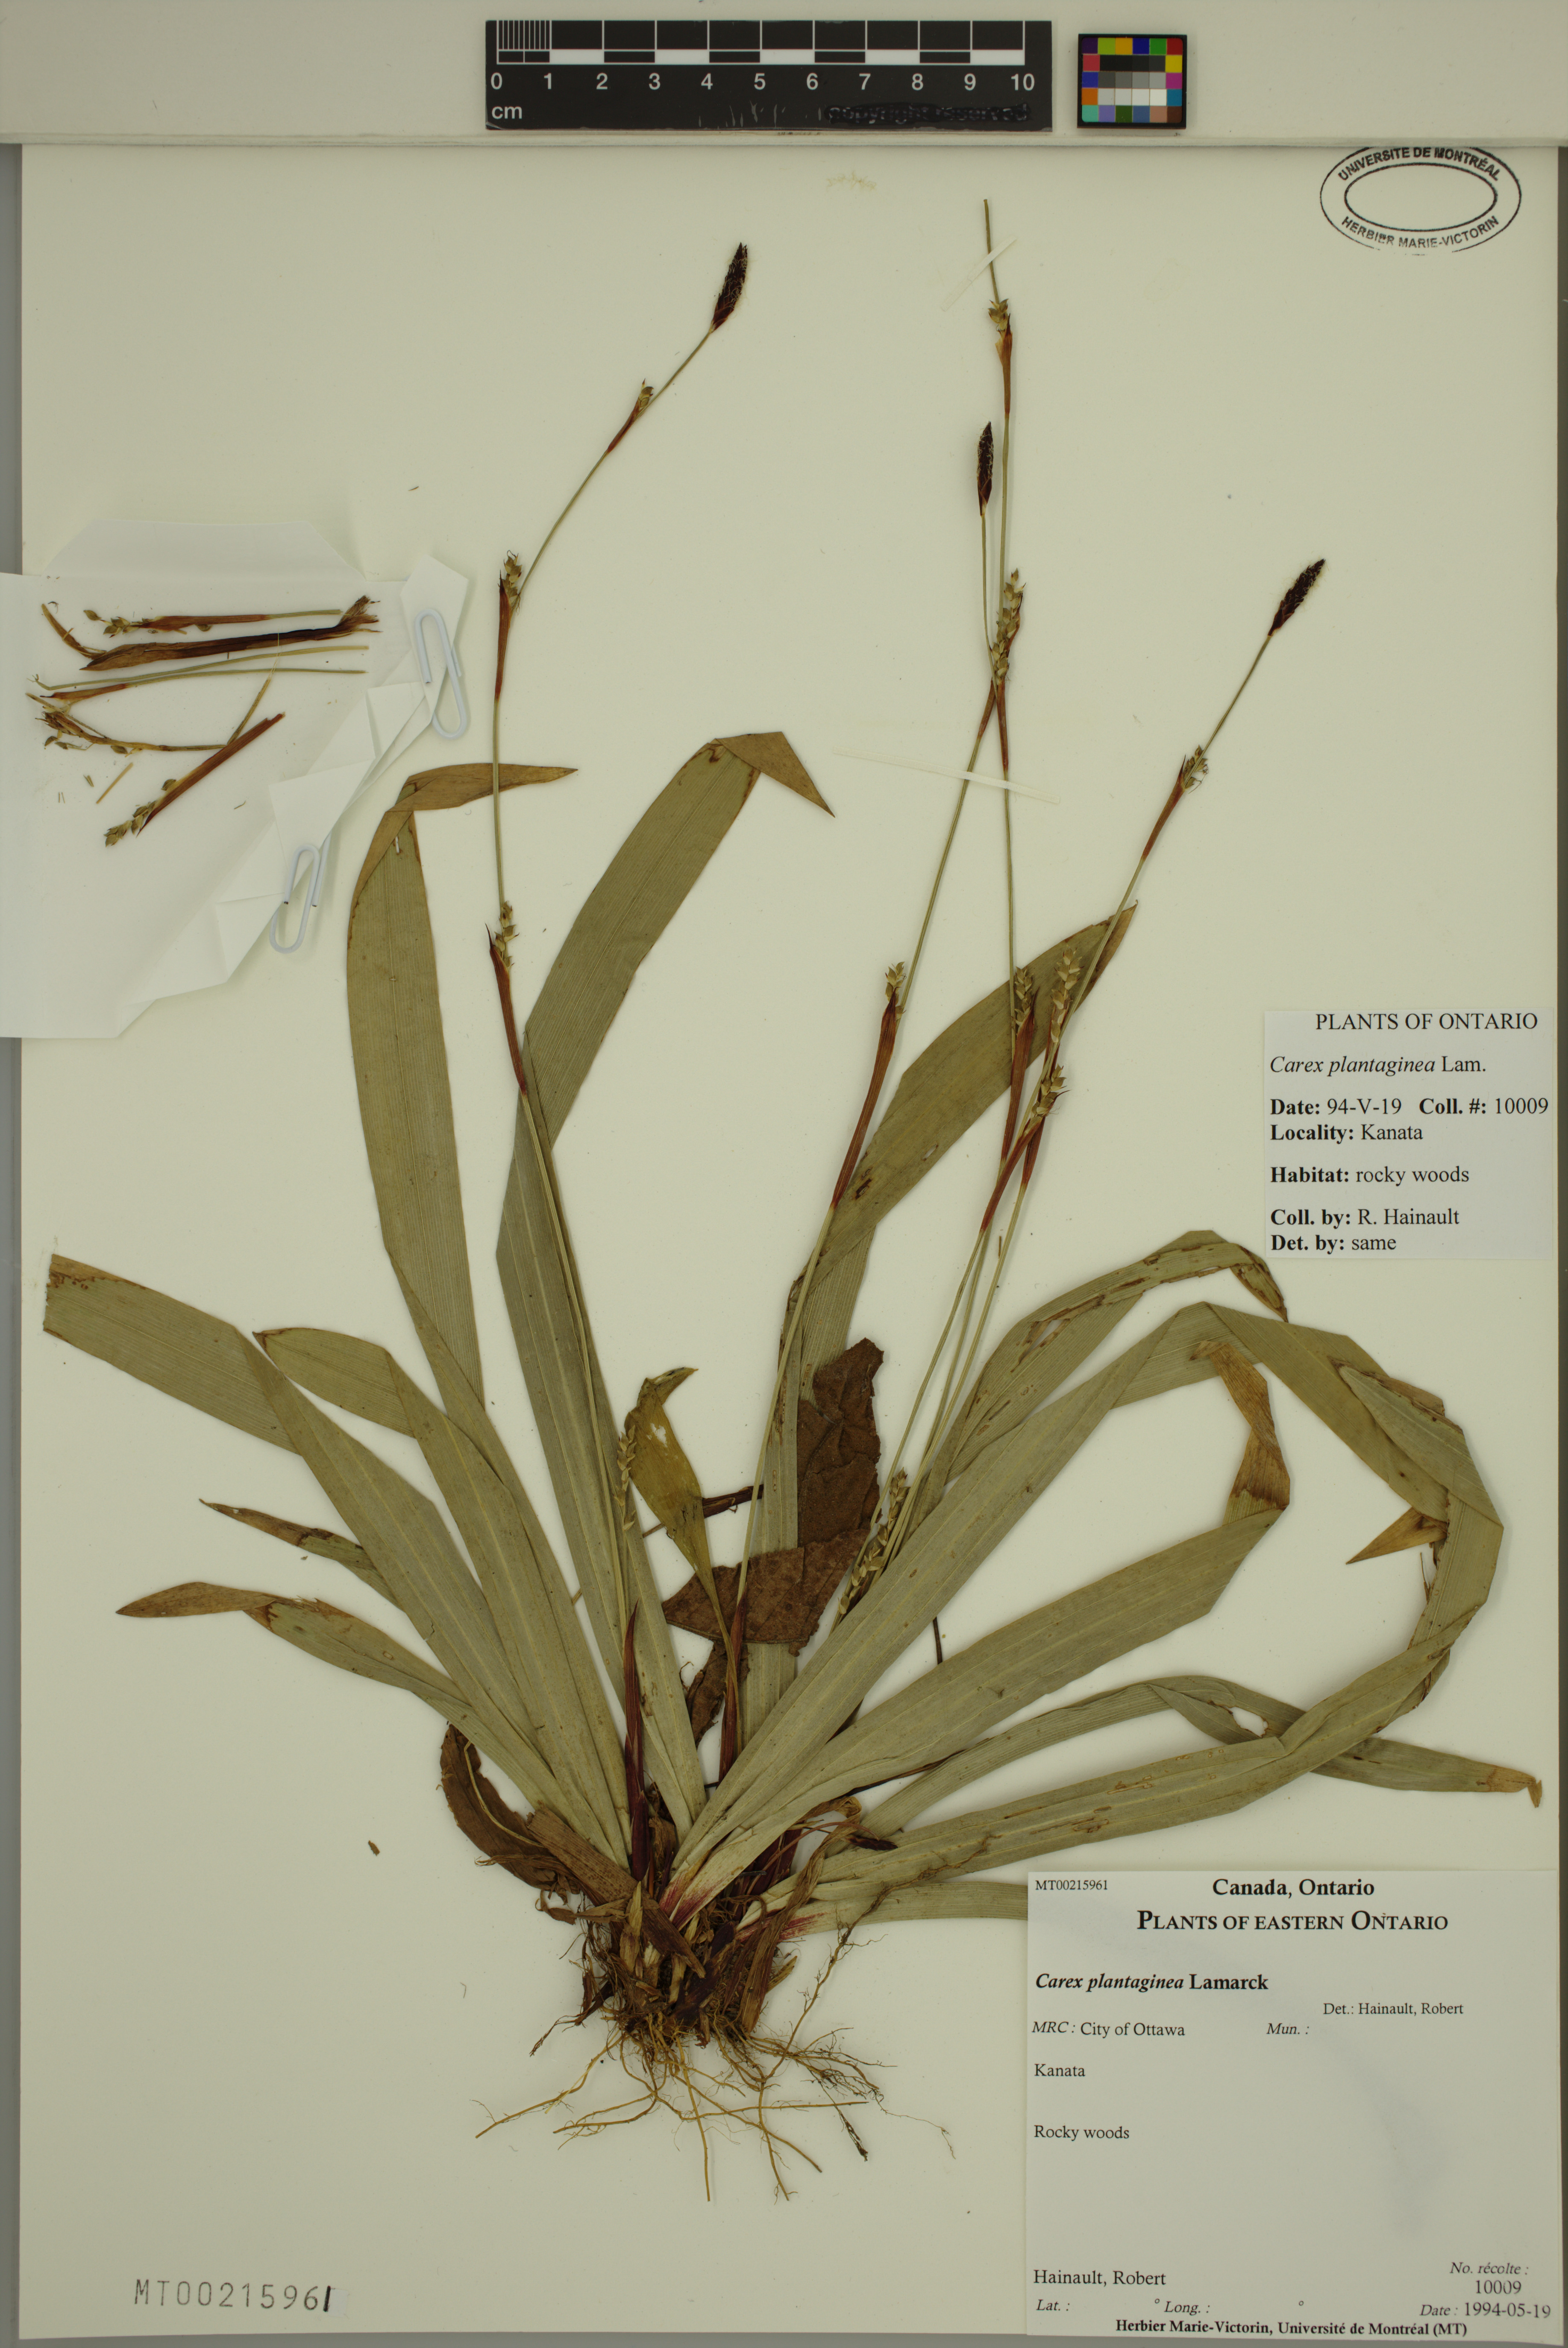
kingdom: Plantae
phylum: Tracheophyta
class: Liliopsida
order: Poales
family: Cyperaceae
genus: Carex
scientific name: Carex plantaginea
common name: Plantain-leaved sedge
